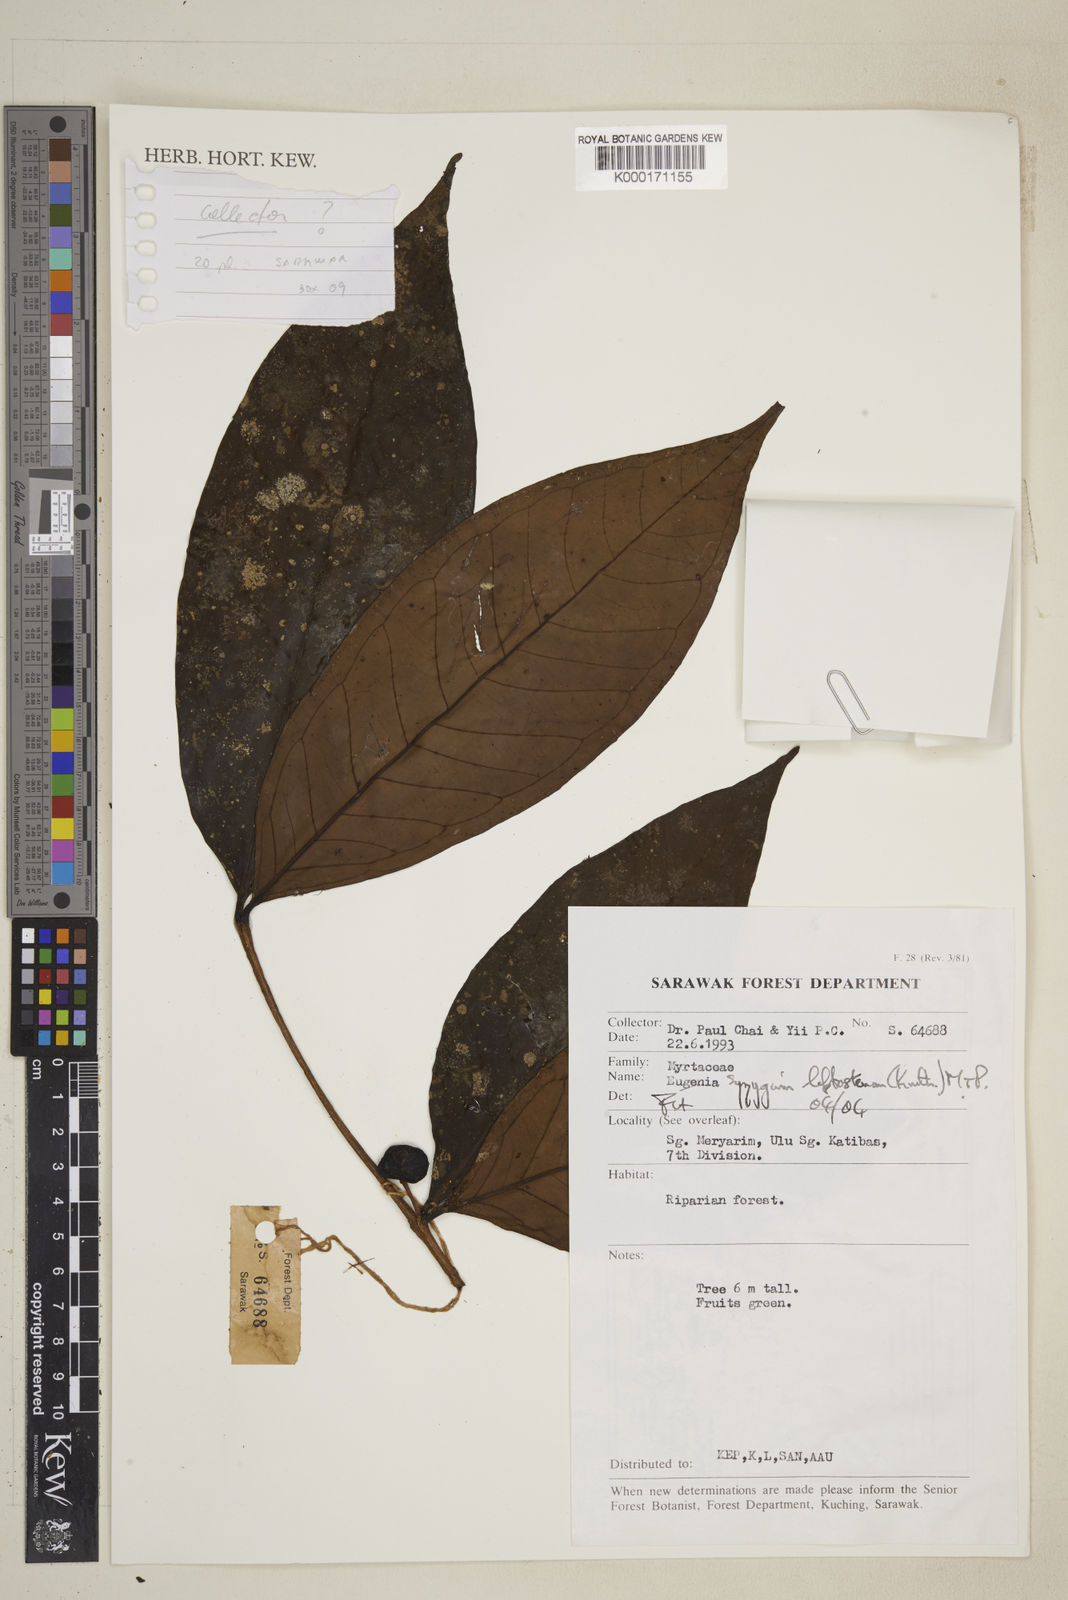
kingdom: Plantae
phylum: Tracheophyta
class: Magnoliopsida
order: Myrtales
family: Myrtaceae
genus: Syzygium
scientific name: Syzygium
